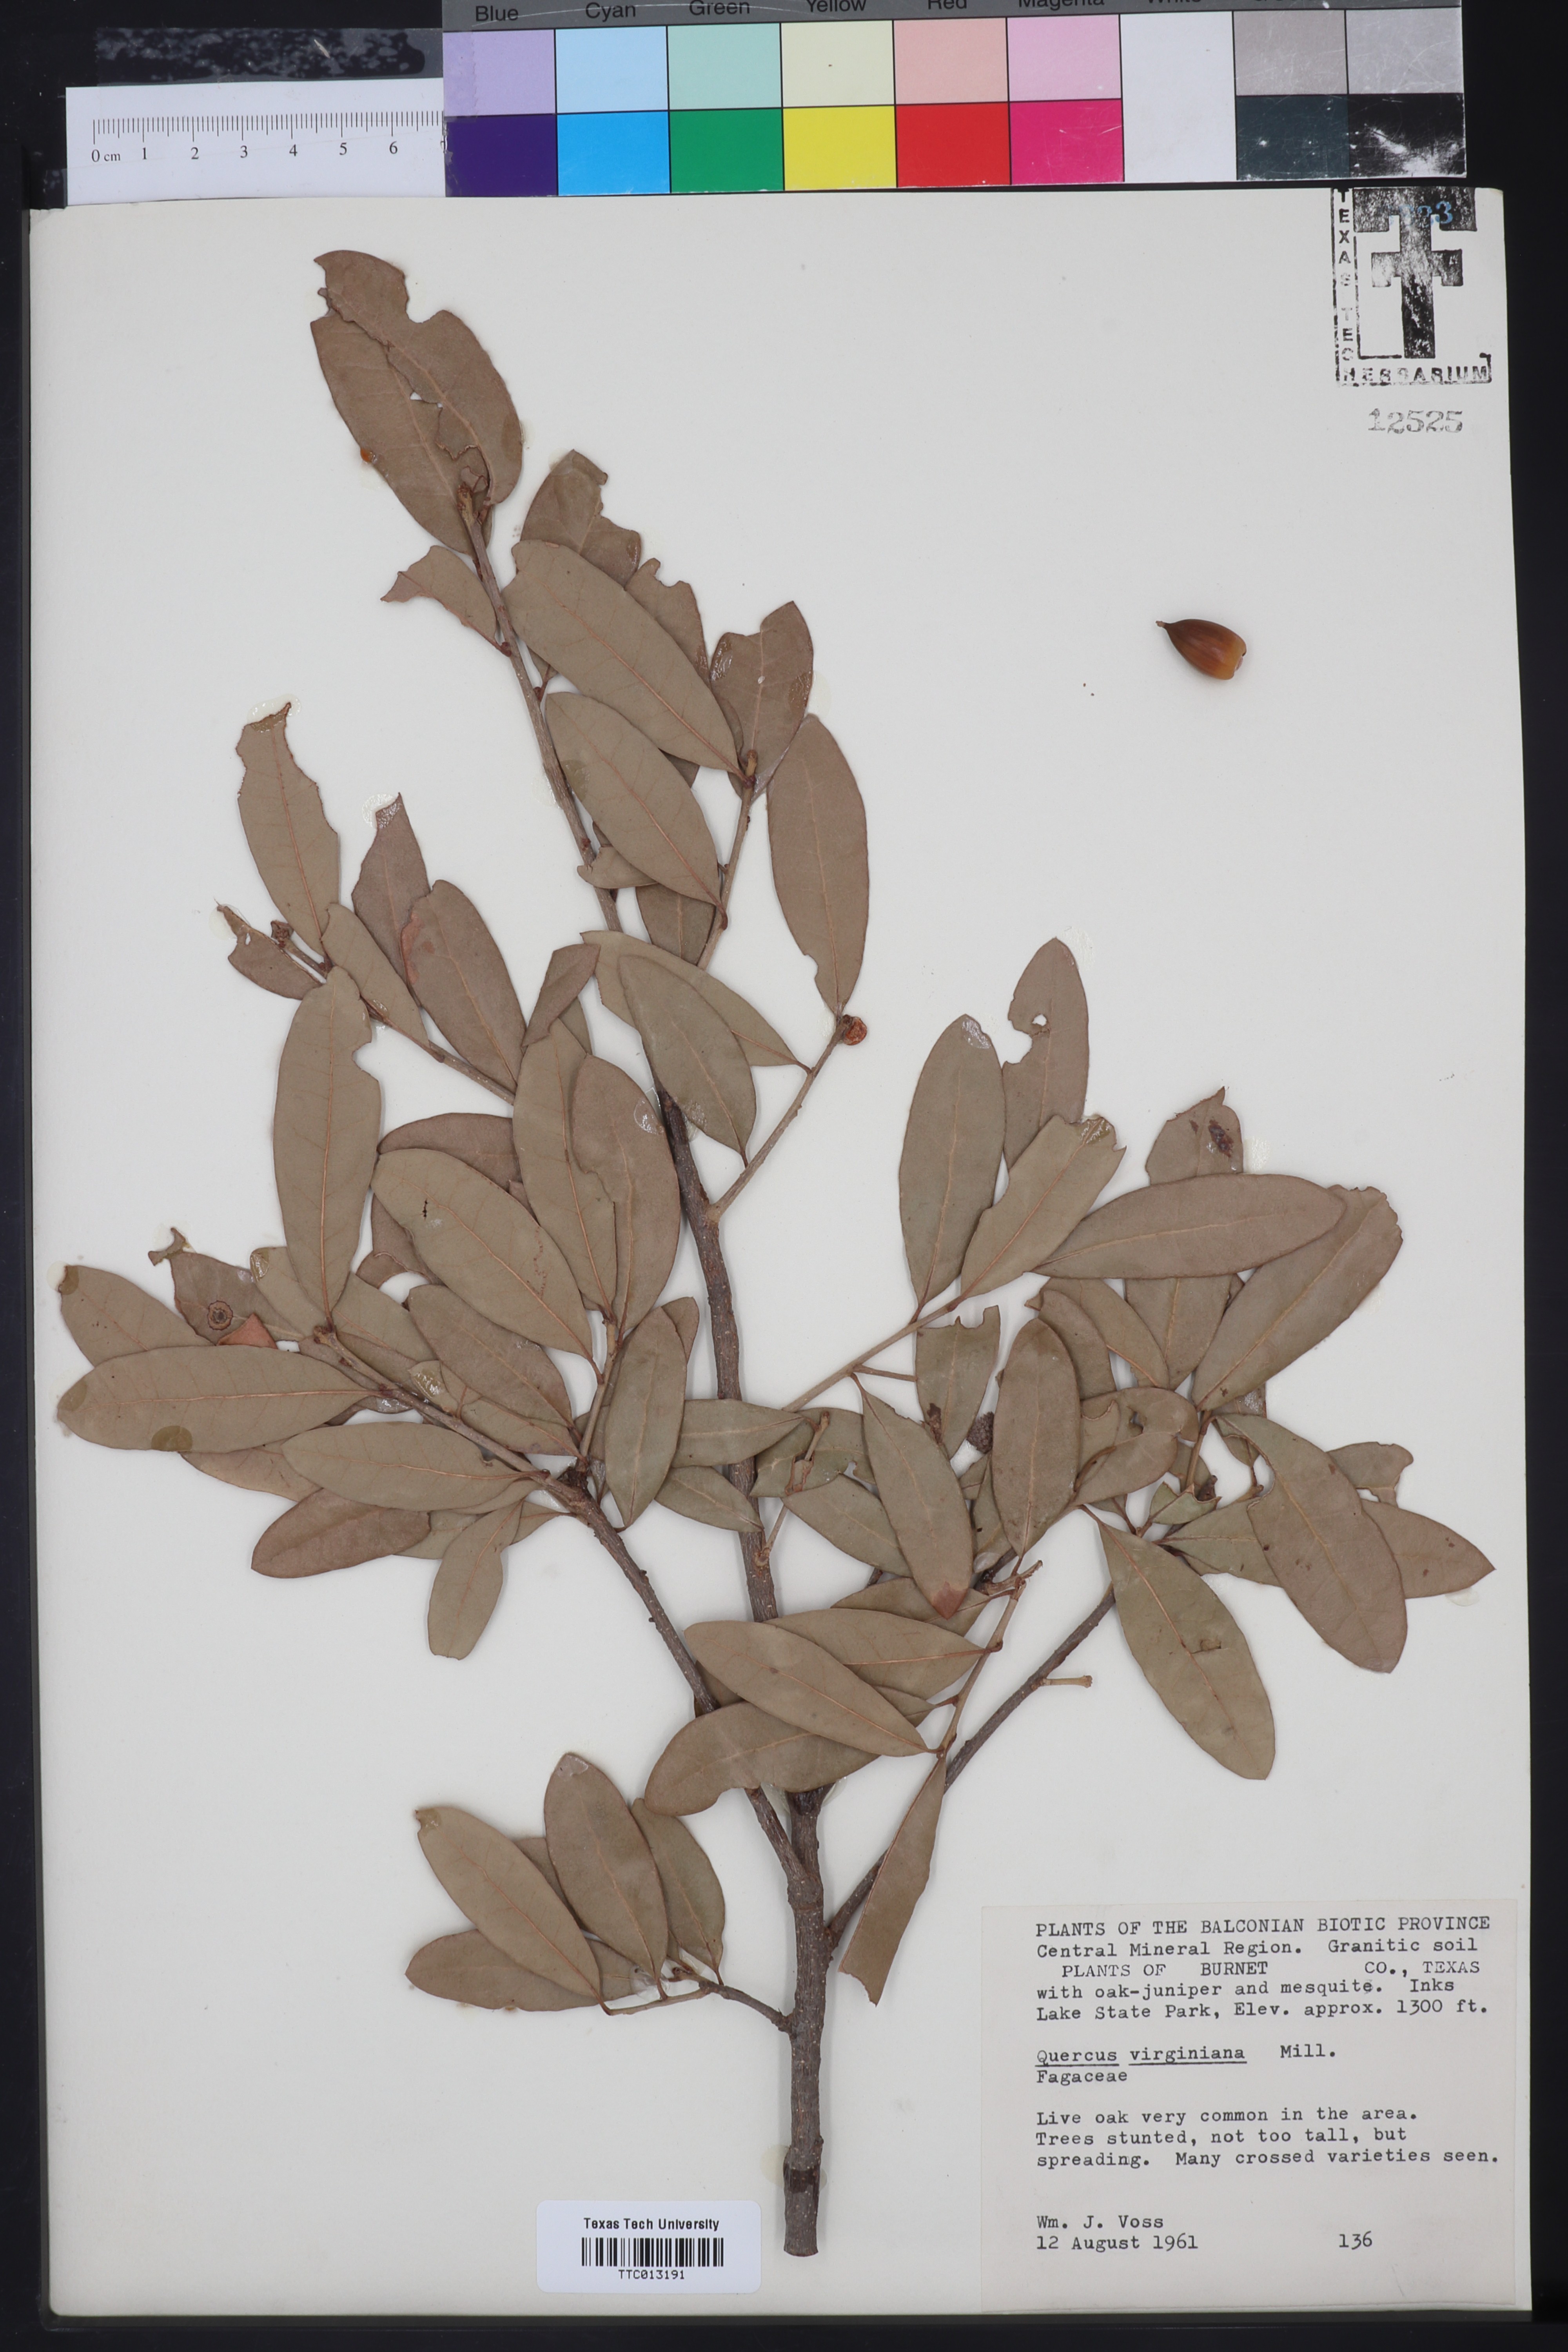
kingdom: Plantae
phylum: Tracheophyta
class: Magnoliopsida
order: Fagales
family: Fagaceae
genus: Quercus
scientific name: Quercus virginiana
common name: Southern live oak
